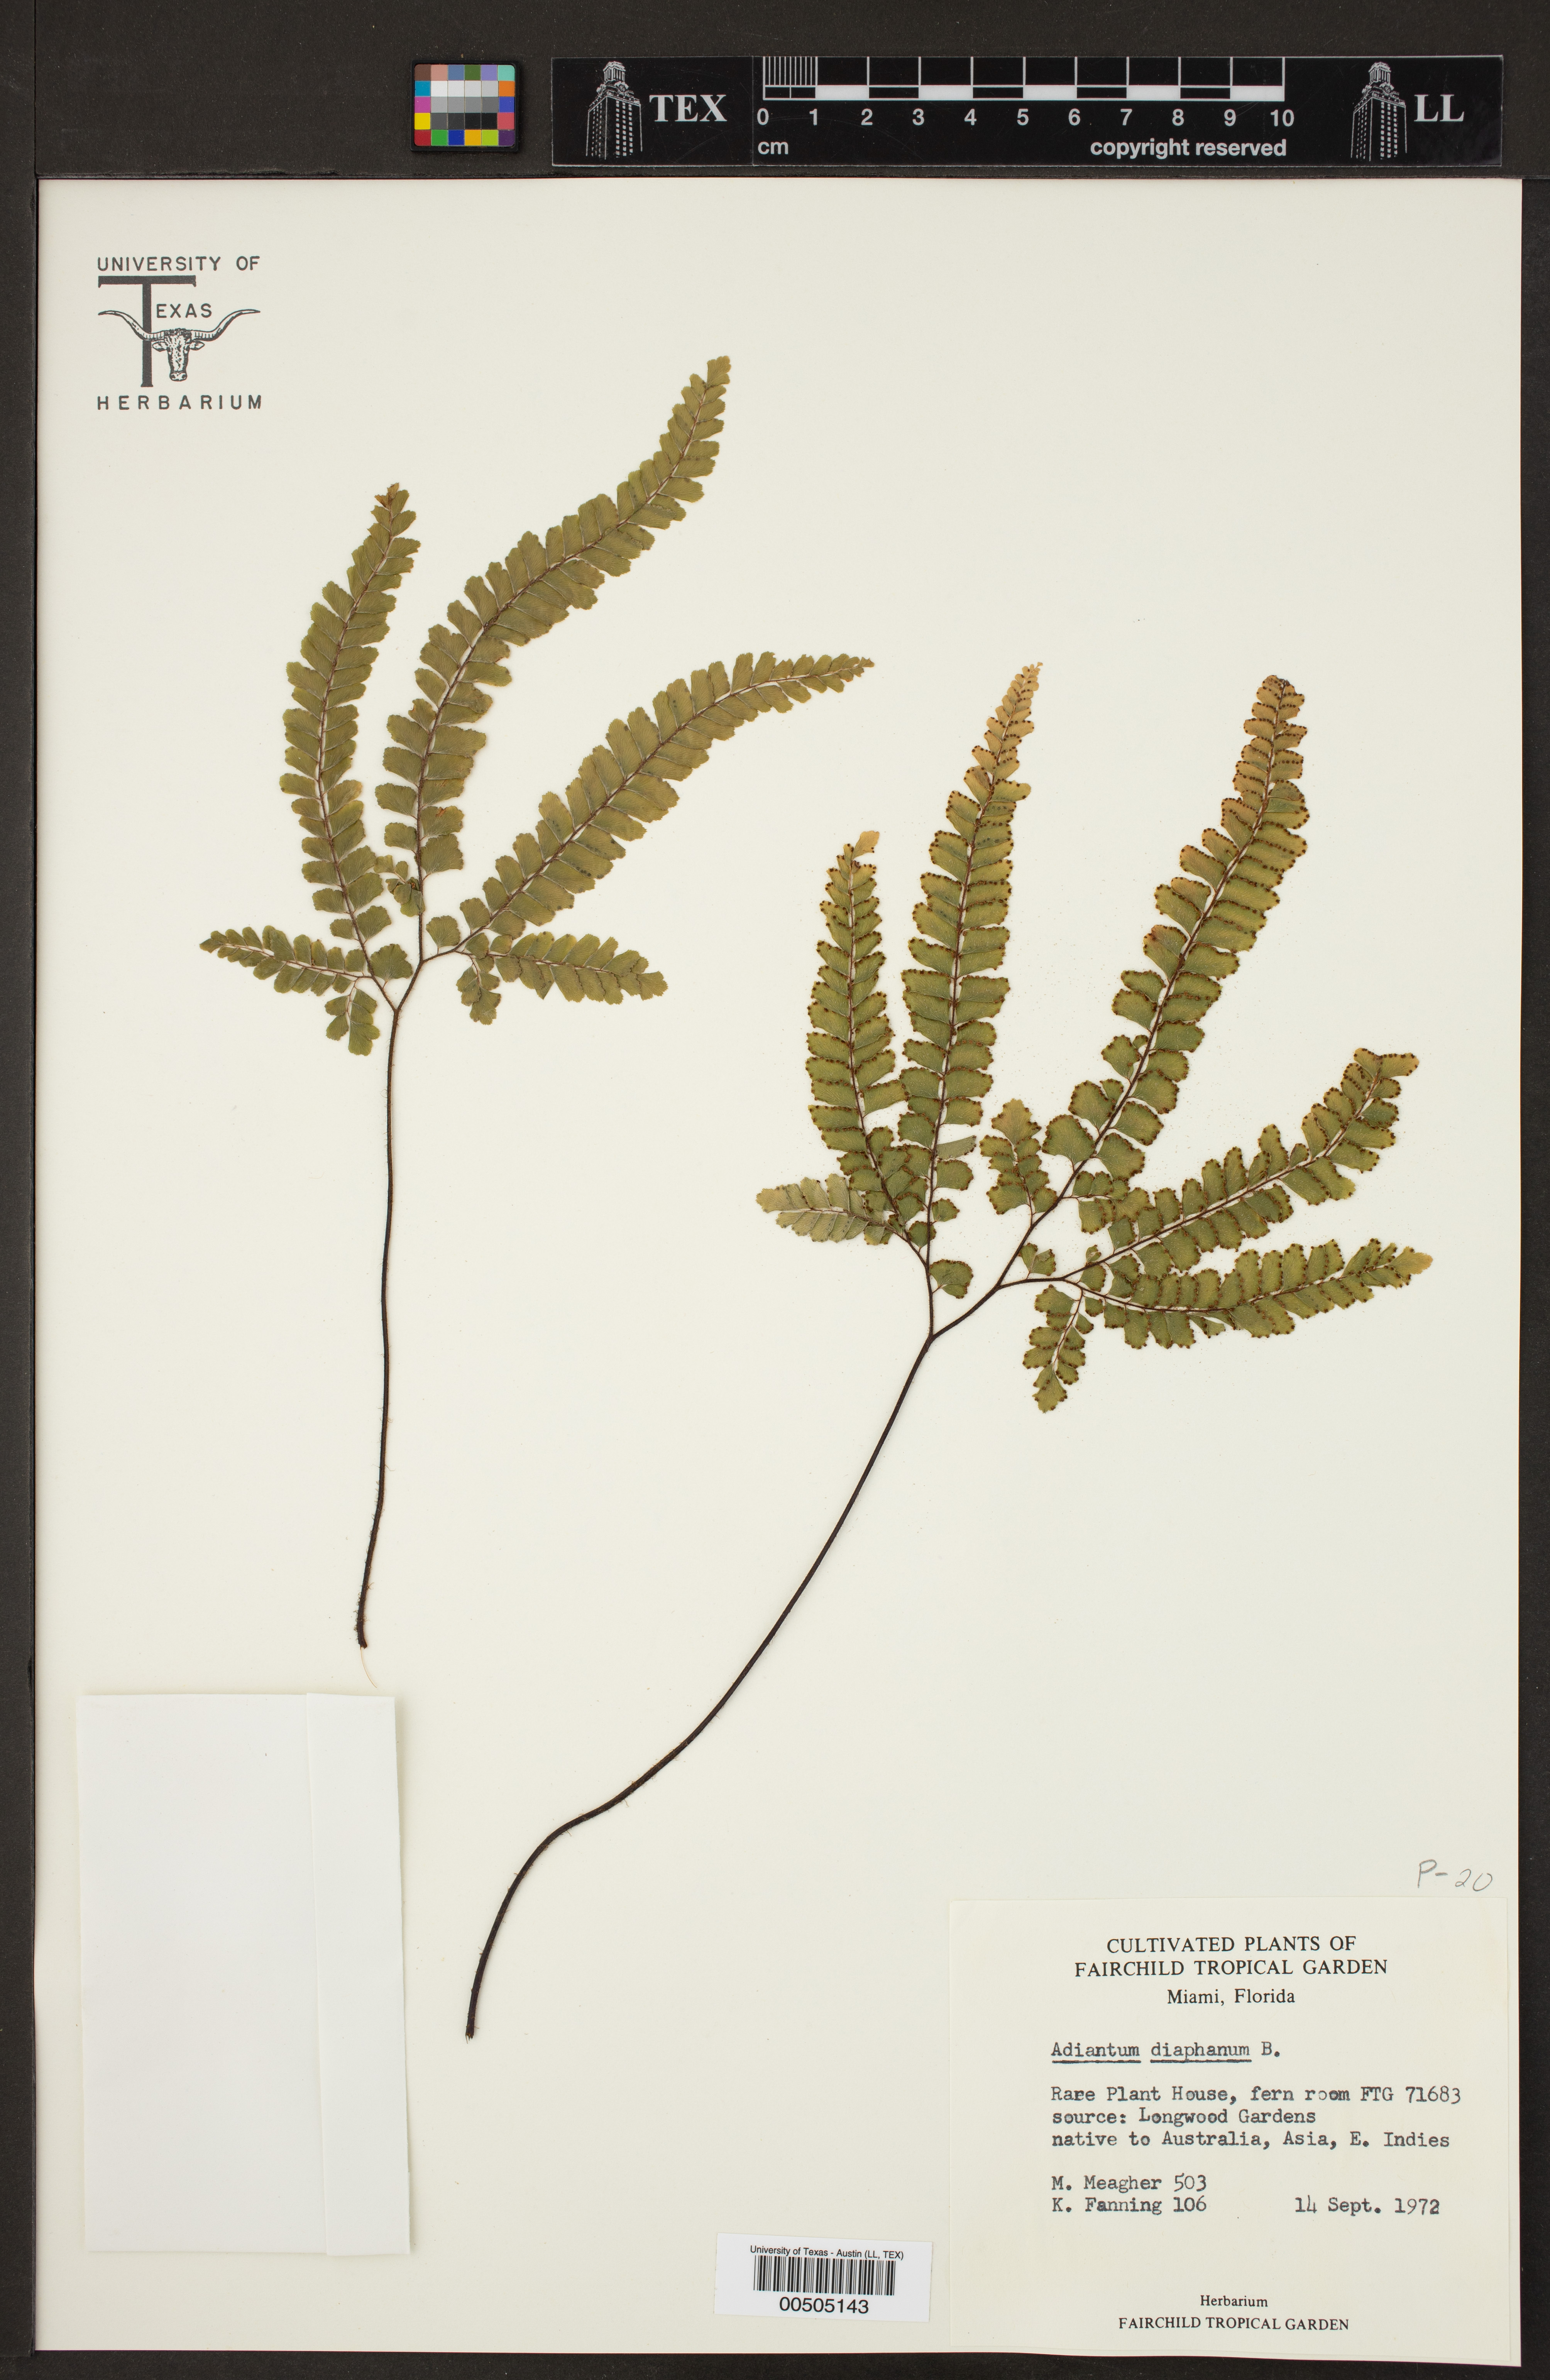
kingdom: Plantae
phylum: Tracheophyta
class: Polypodiopsida
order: Polypodiales
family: Pteridaceae
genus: Adiantum
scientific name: Adiantum diaphanum
